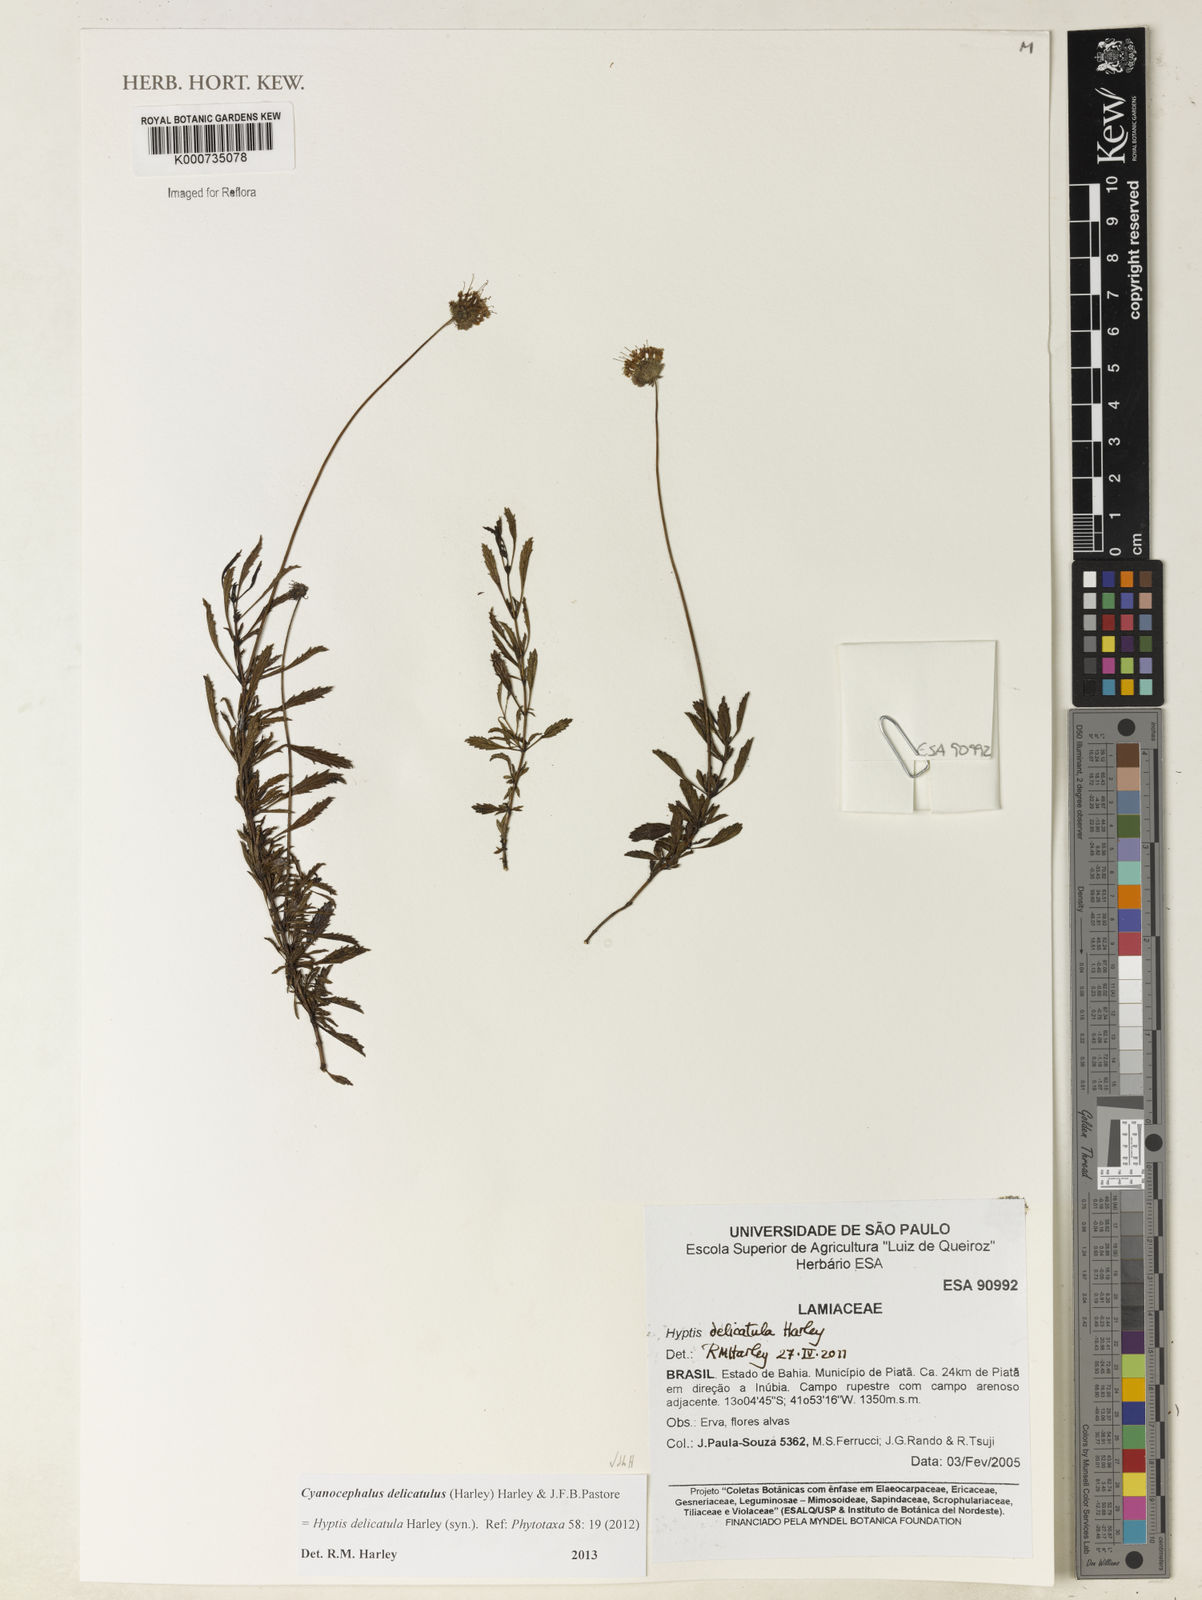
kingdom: Plantae
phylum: Tracheophyta
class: Magnoliopsida
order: Lamiales
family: Lamiaceae
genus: Hyptis
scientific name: Hyptis
